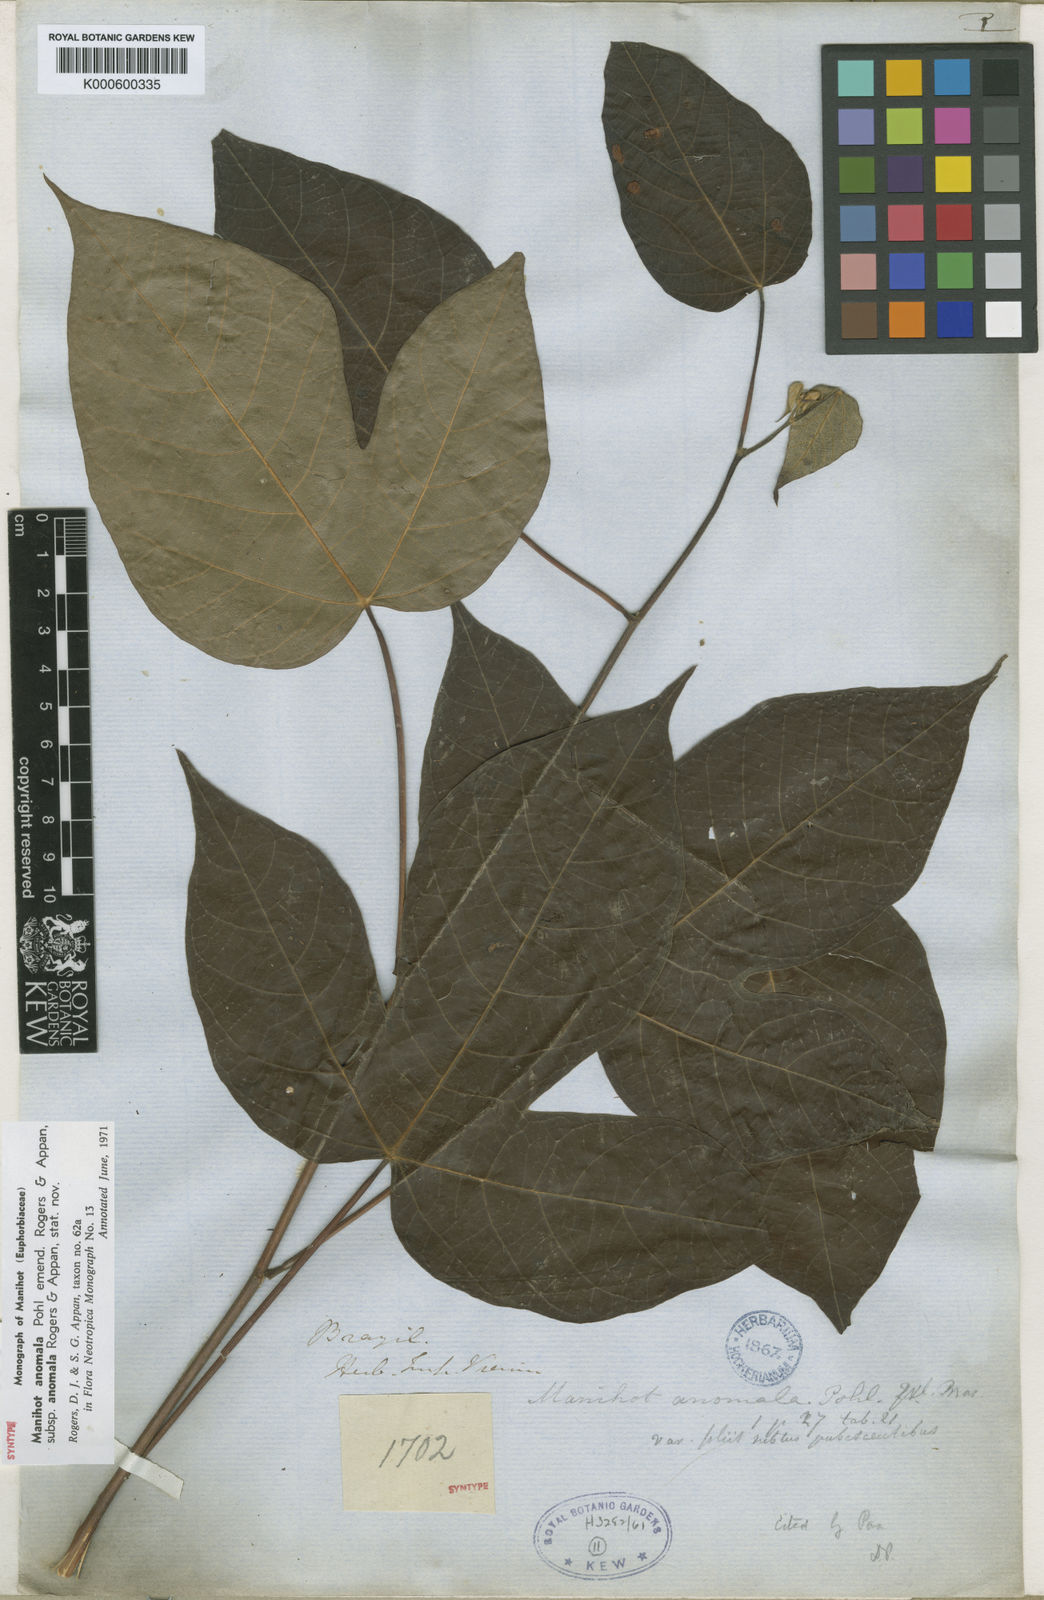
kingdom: Plantae
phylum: Tracheophyta
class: Magnoliopsida
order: Malpighiales
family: Euphorbiaceae
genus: Manihot
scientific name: Manihot anomala
